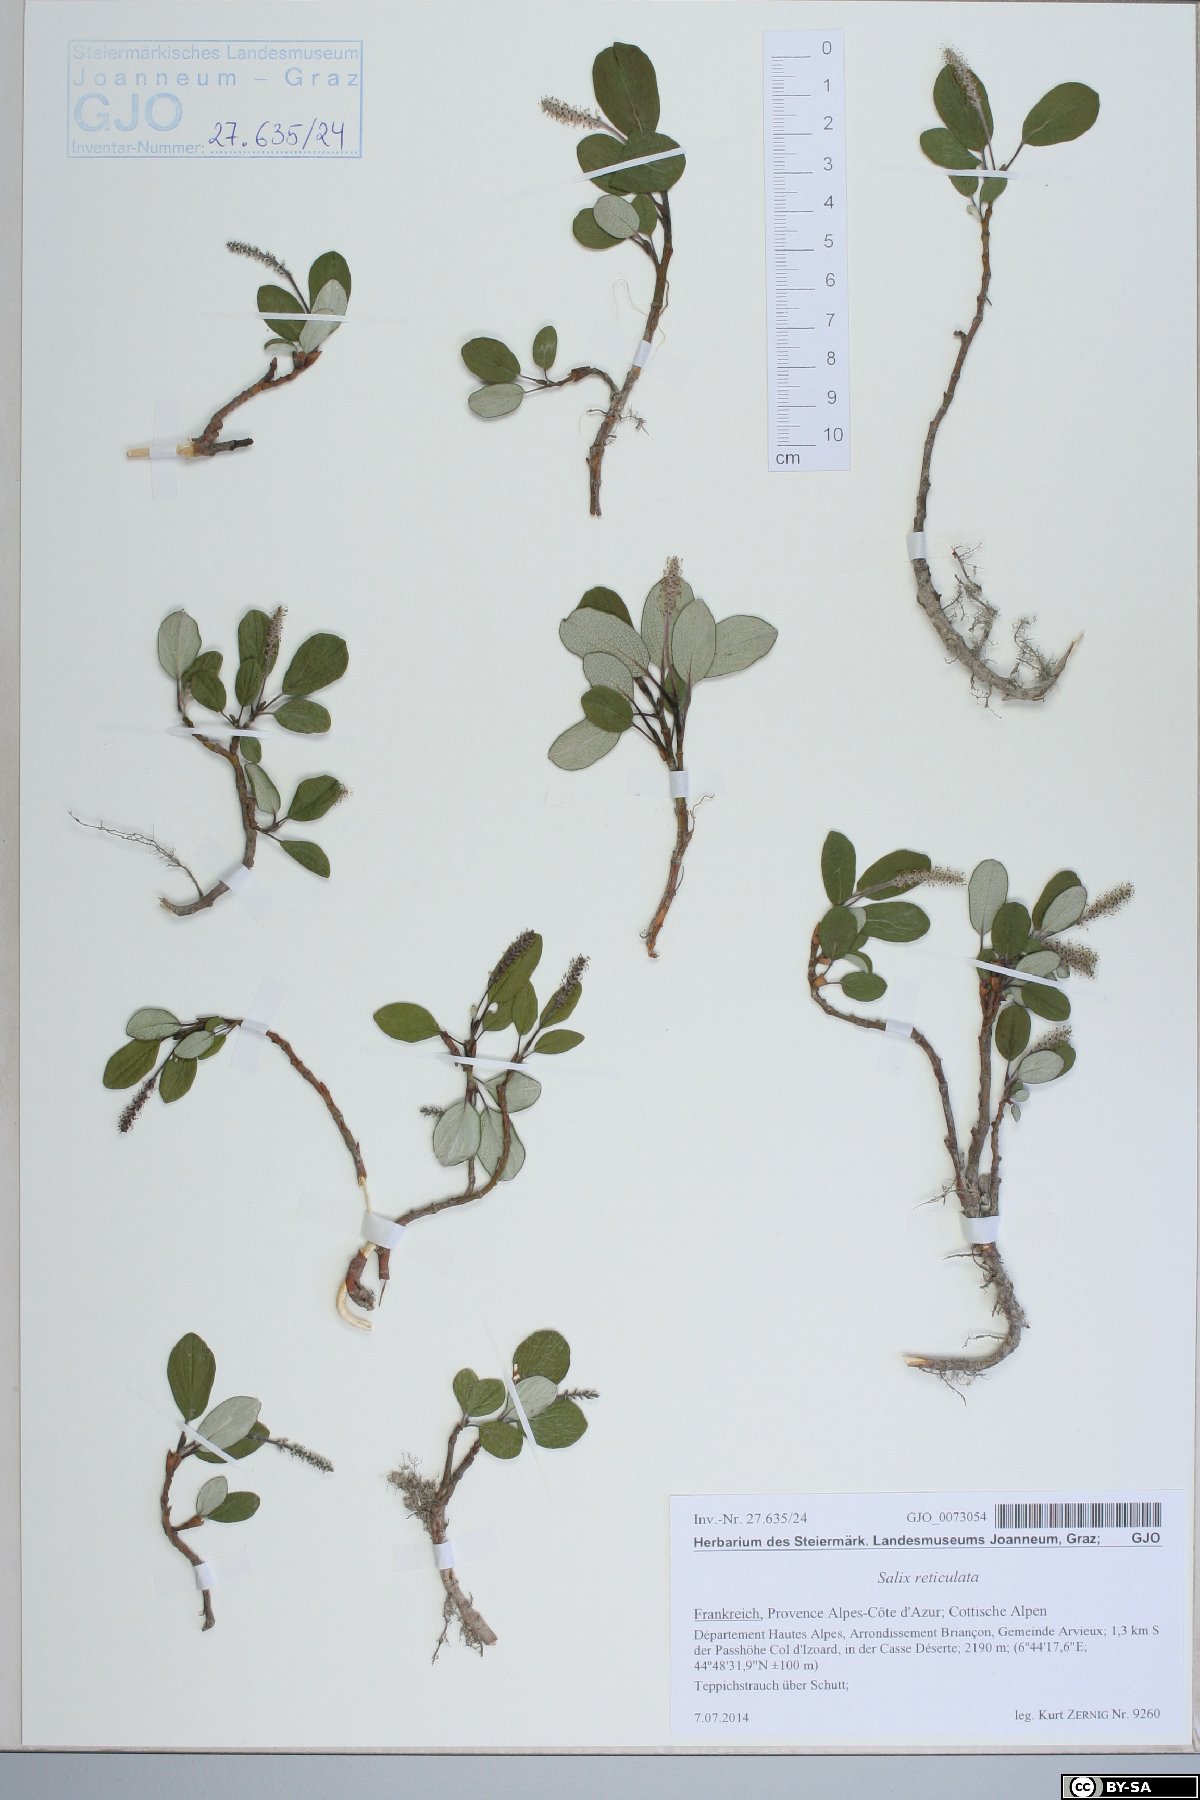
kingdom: Plantae
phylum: Tracheophyta
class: Magnoliopsida
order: Malpighiales
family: Salicaceae
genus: Salix
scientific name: Salix reticulata
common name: Net-leaved willow
